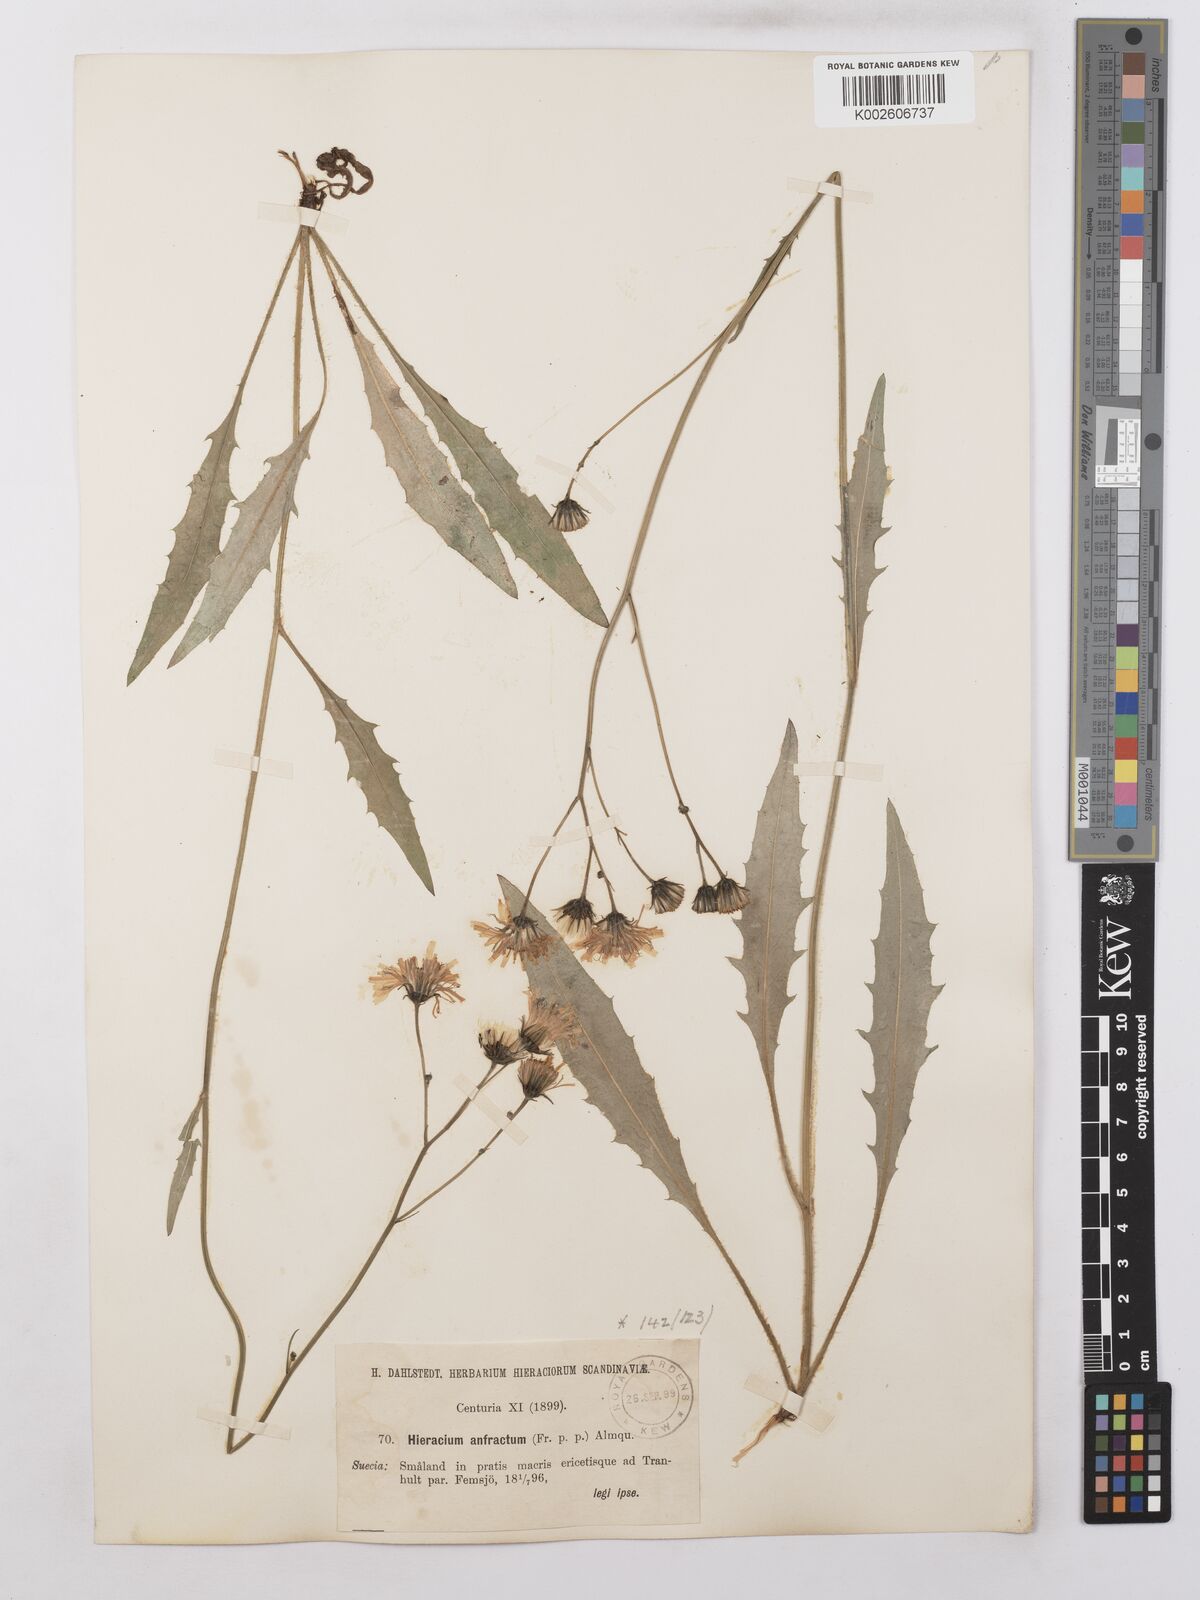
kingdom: Plantae
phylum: Tracheophyta
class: Magnoliopsida
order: Asterales
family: Asteraceae
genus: Hieracium
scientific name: Hieracium lachenalii
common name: Common hawkweed
